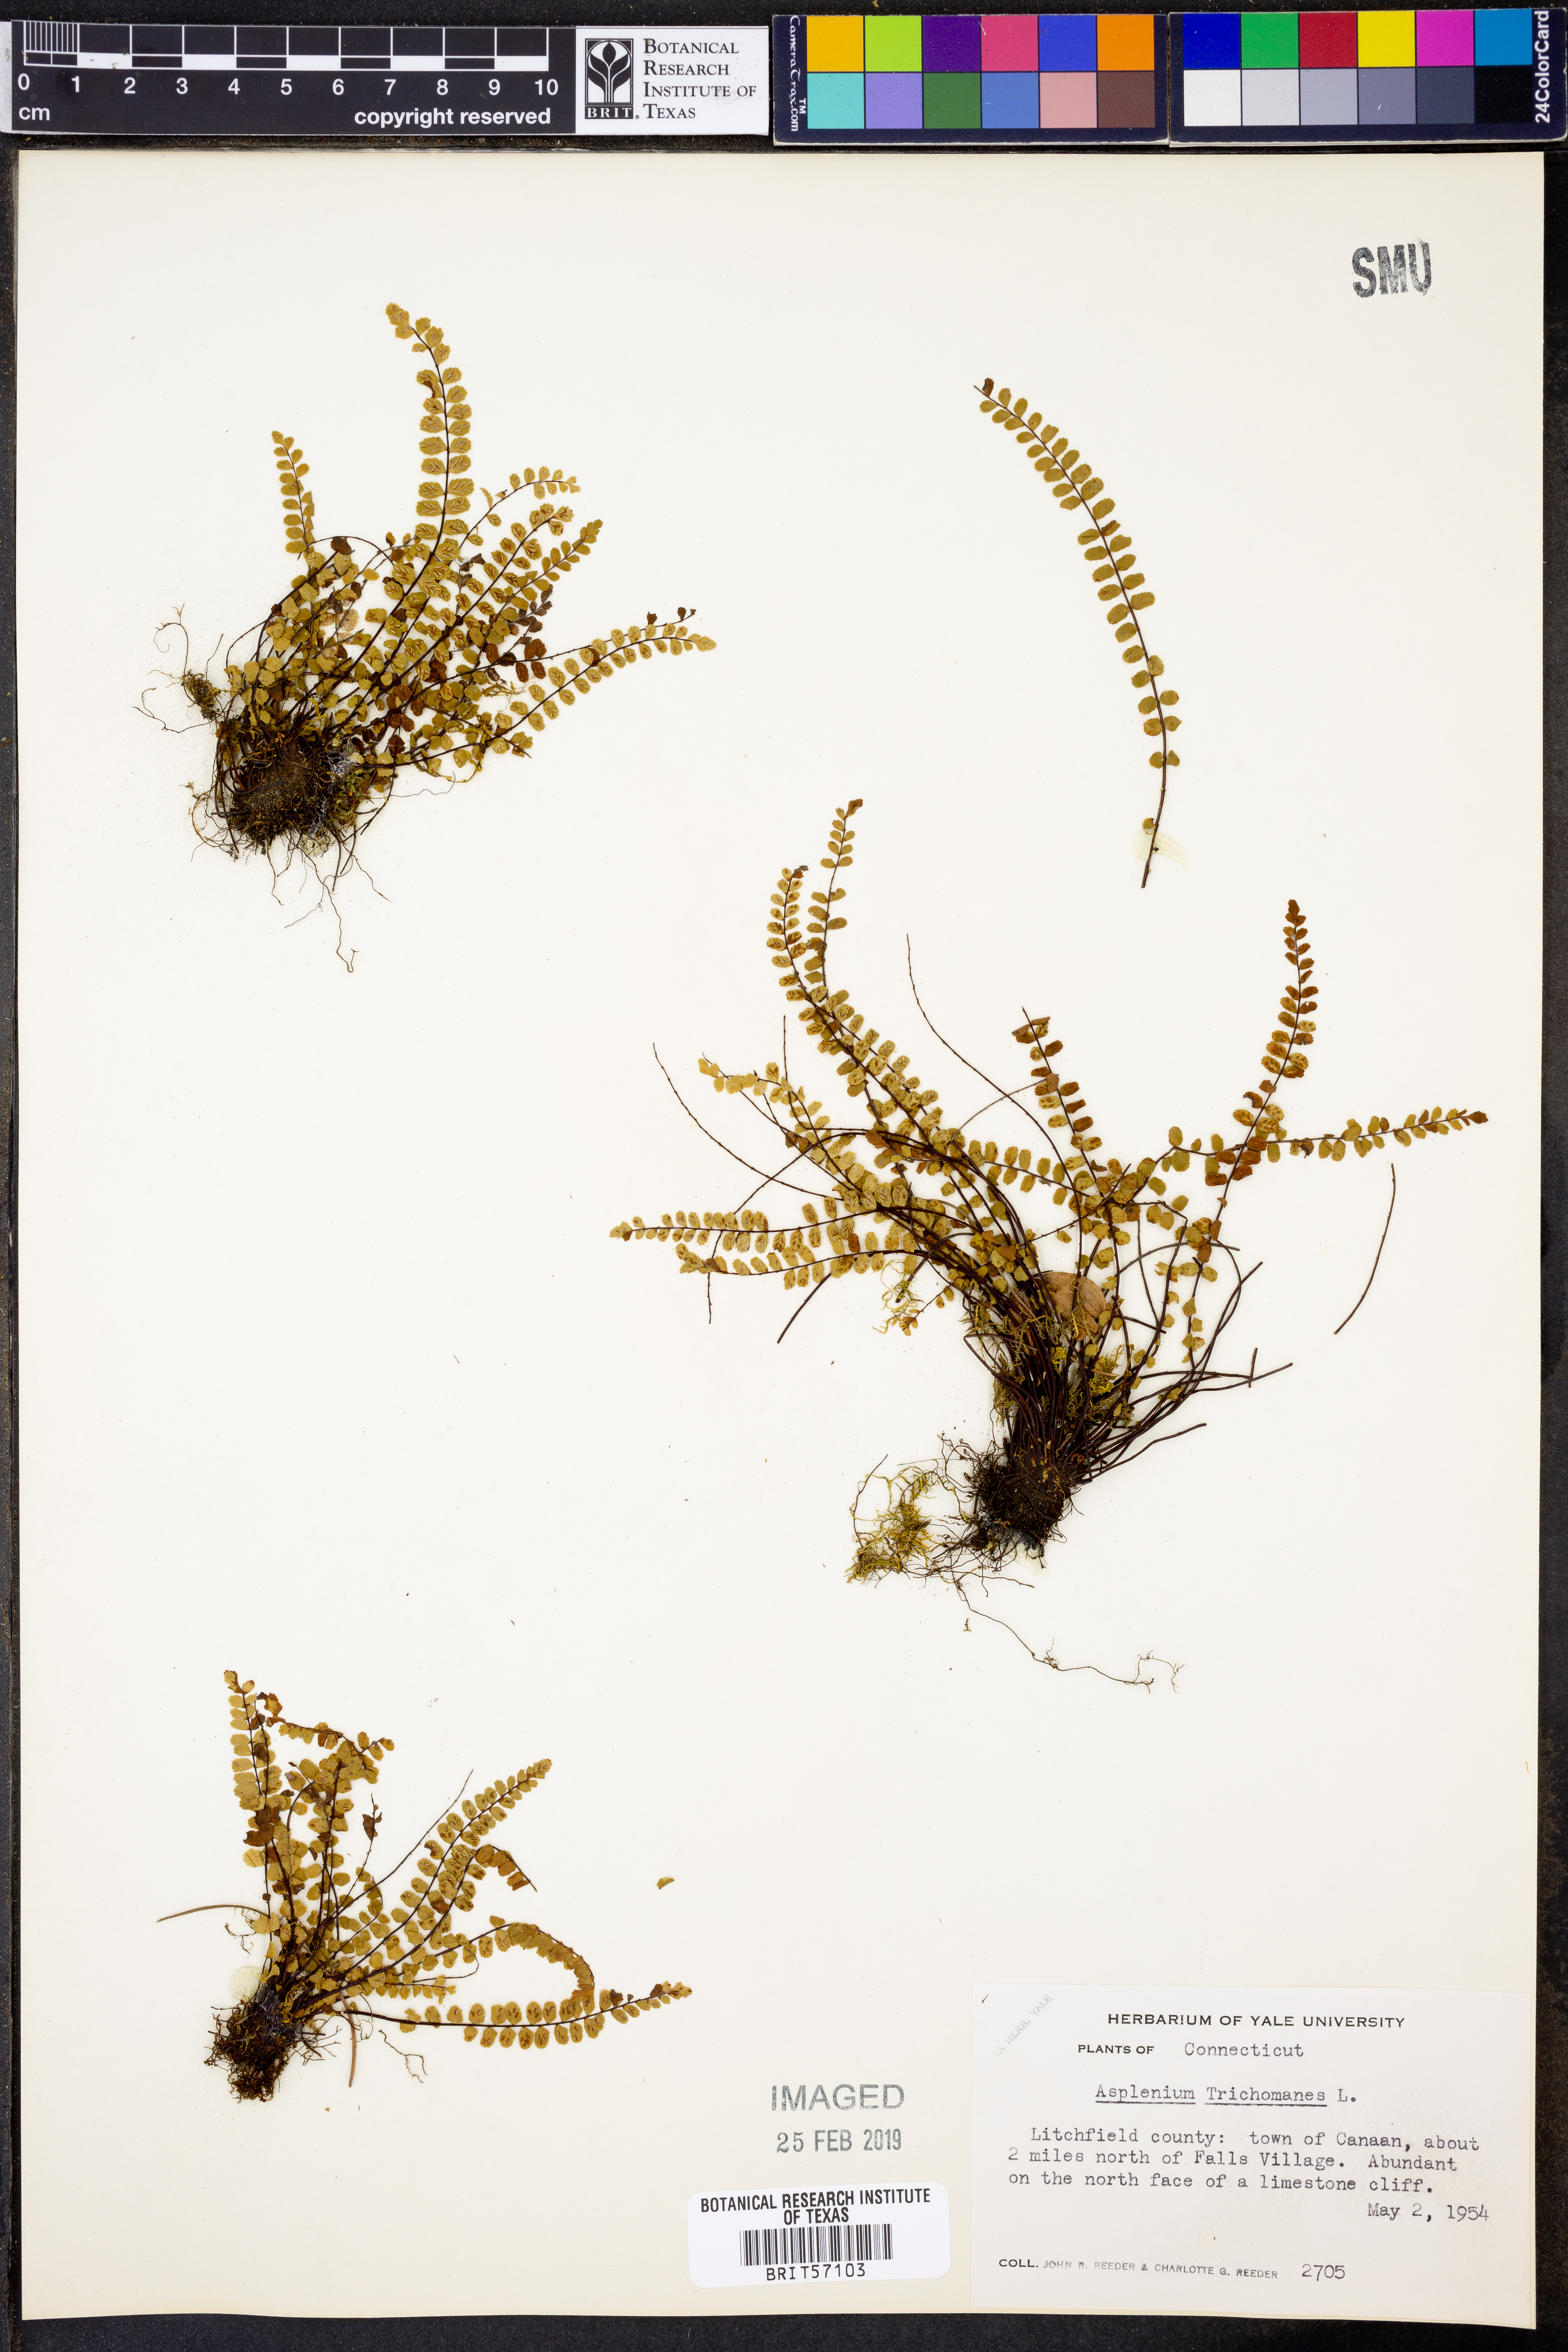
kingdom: Plantae
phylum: Tracheophyta
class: Polypodiopsida
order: Polypodiales
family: Aspleniaceae
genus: Asplenium
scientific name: Asplenium trichomanes
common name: Maidenhair spleenwort
